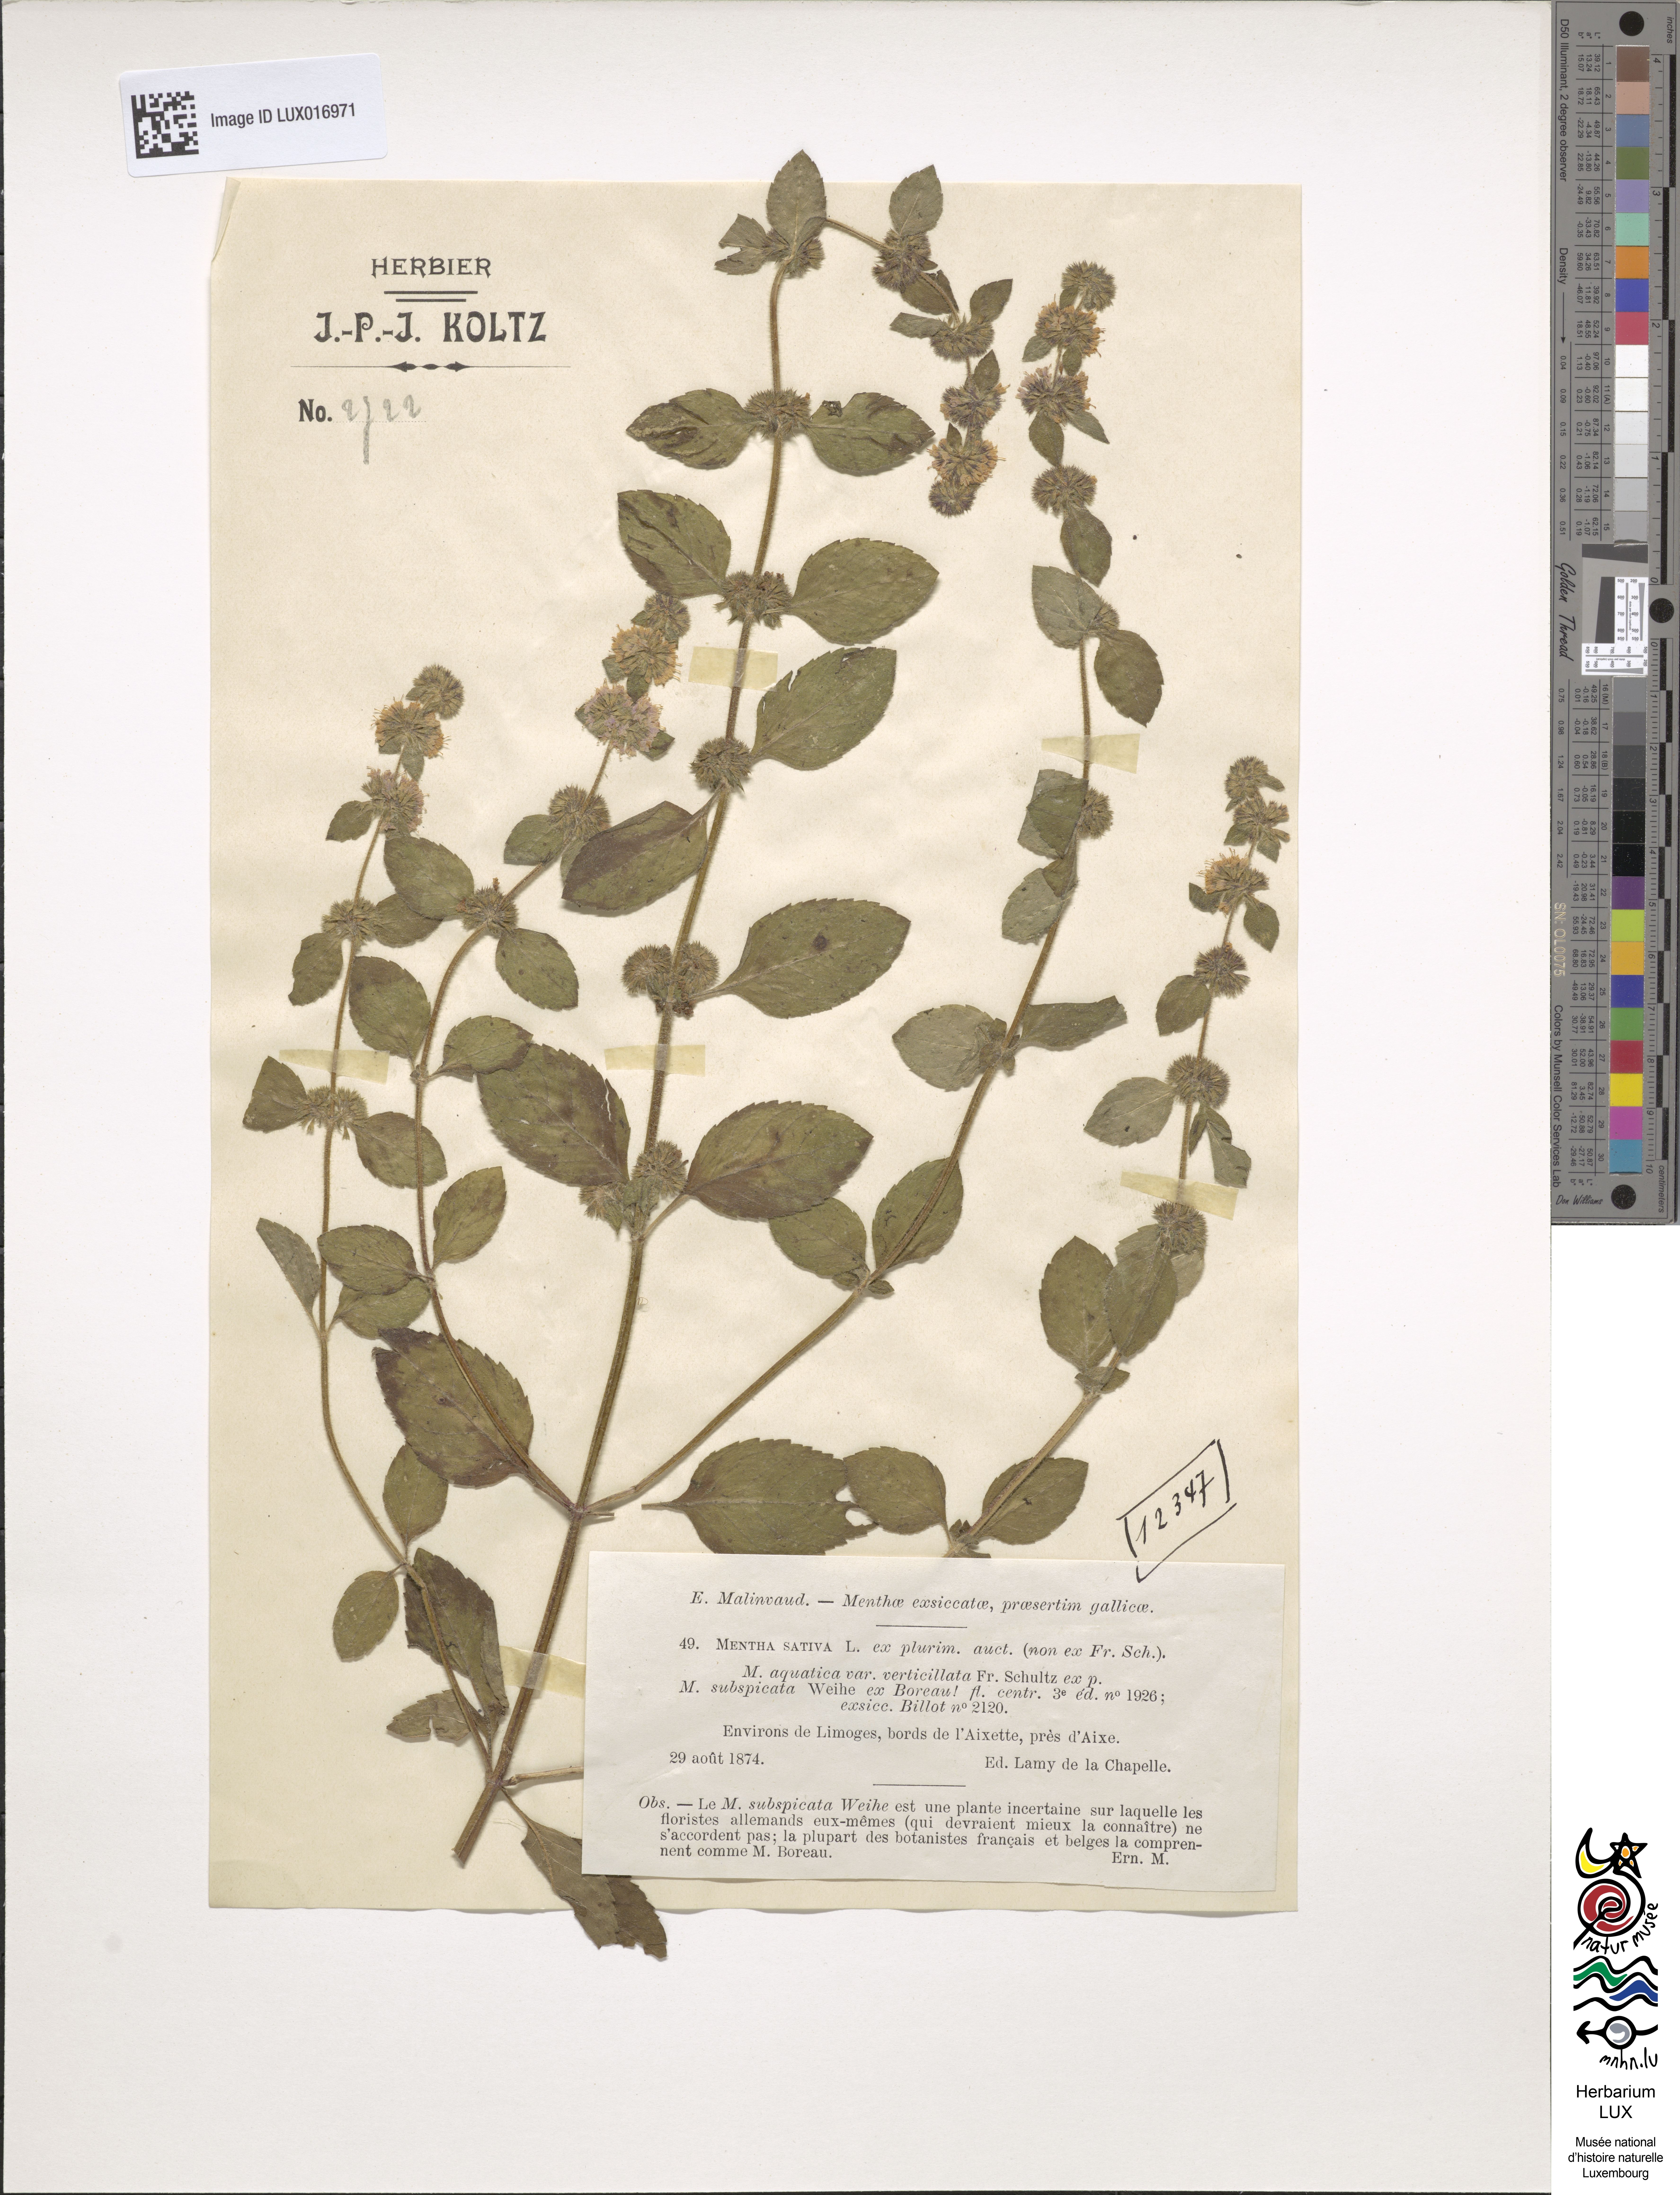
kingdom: Plantae
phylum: Tracheophyta
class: Magnoliopsida
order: Lamiales
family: Lamiaceae
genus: Mentha
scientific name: Mentha verticillata
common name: Mint
